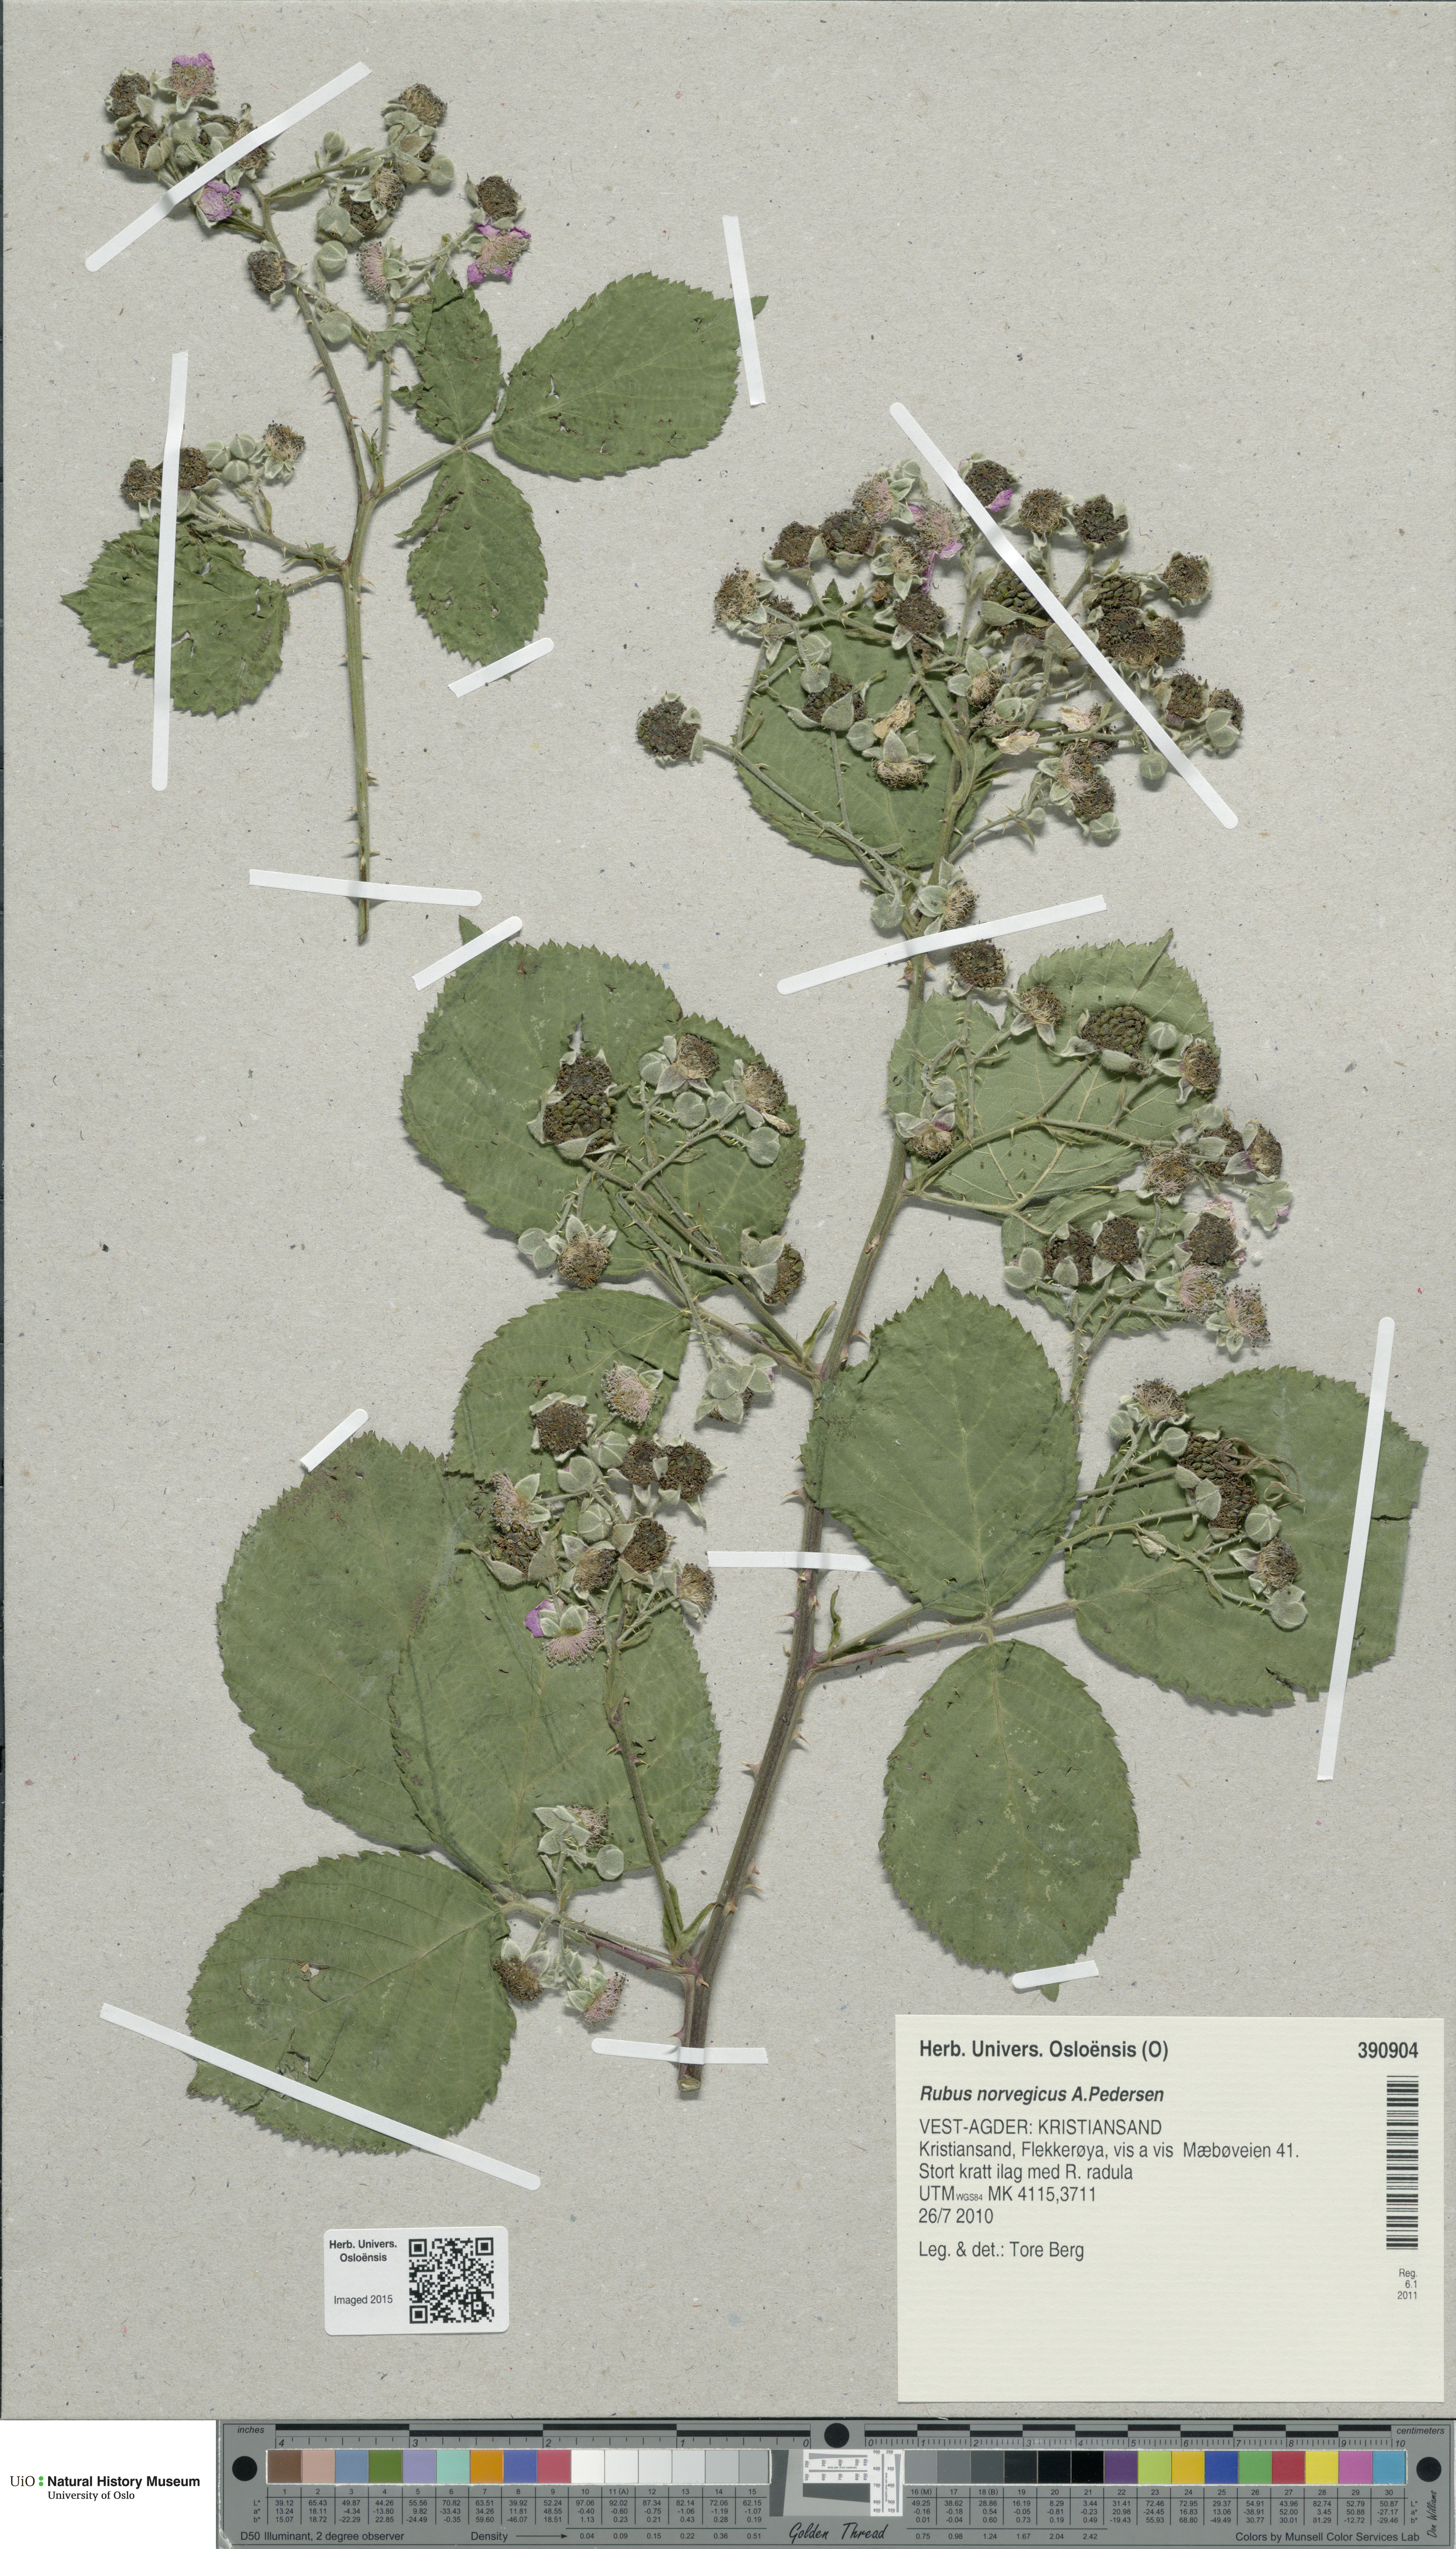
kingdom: Plantae
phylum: Tracheophyta
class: Magnoliopsida
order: Rosales
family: Rosaceae
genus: Rubus
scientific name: Rubus norvegicus
